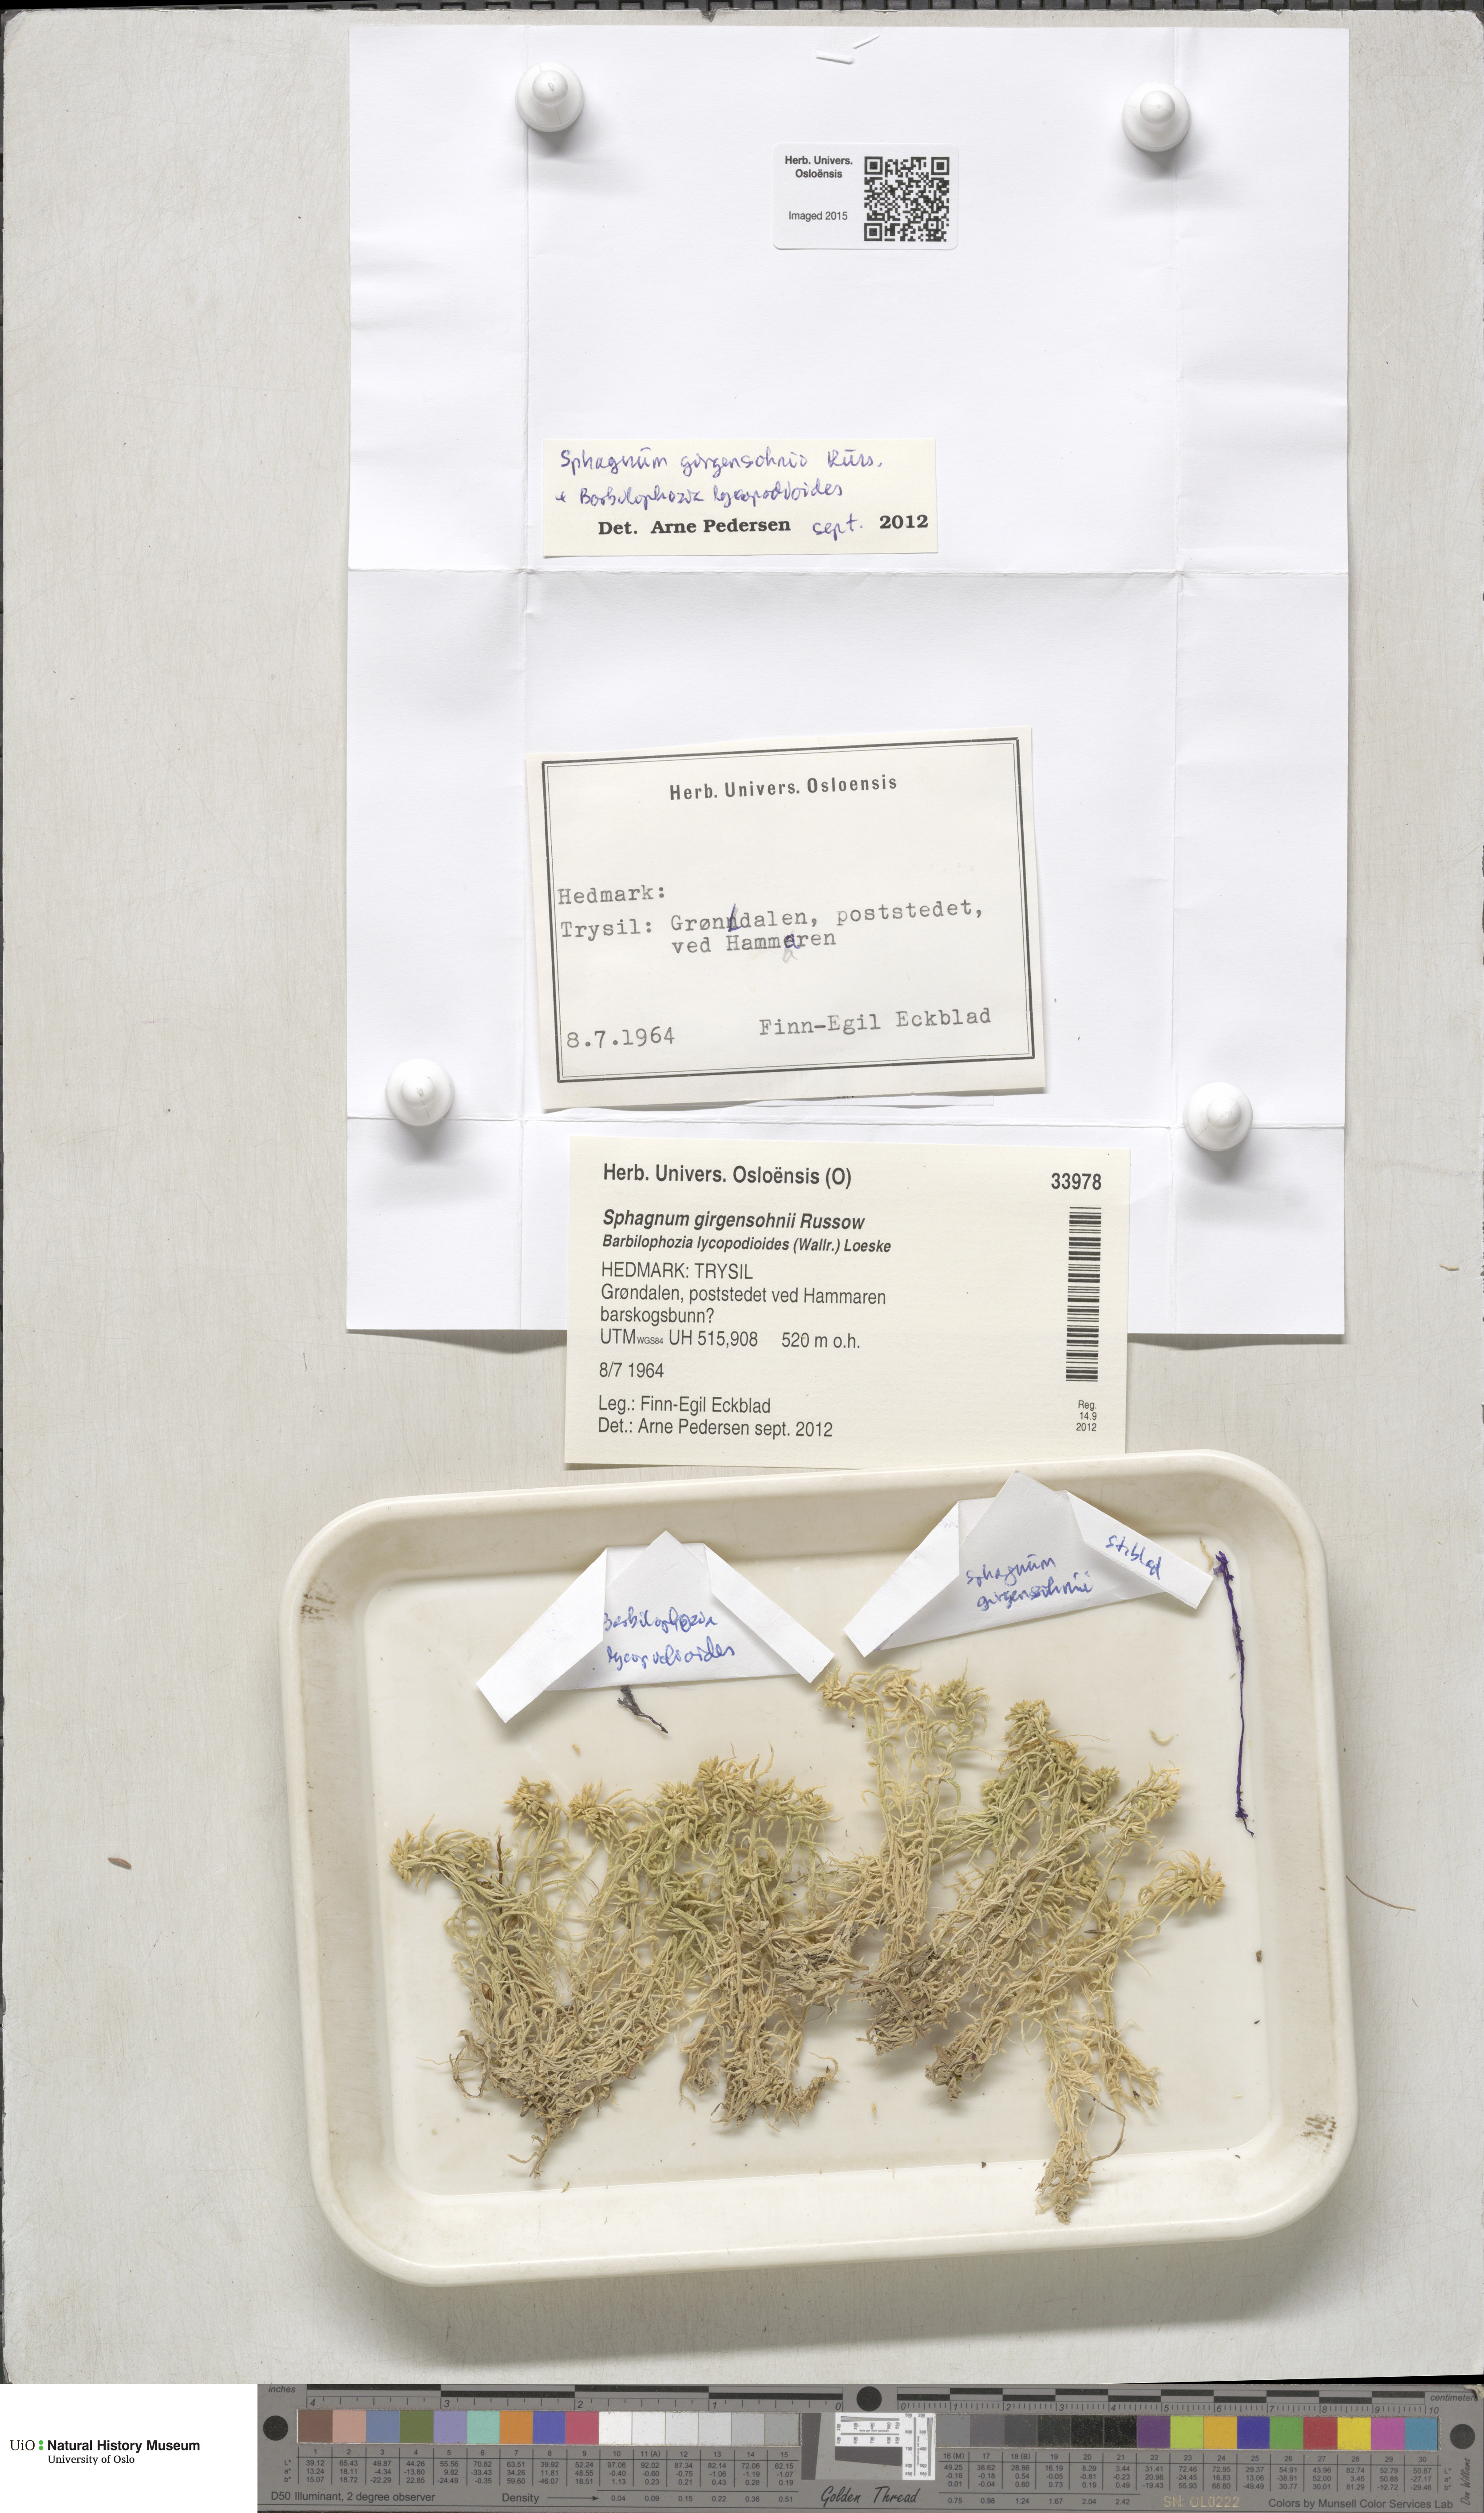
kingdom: Plantae
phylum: Bryophyta
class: Sphagnopsida
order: Sphagnales
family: Sphagnaceae
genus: Sphagnum
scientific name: Sphagnum girgensohnii
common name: Girgensohn's peat moss
